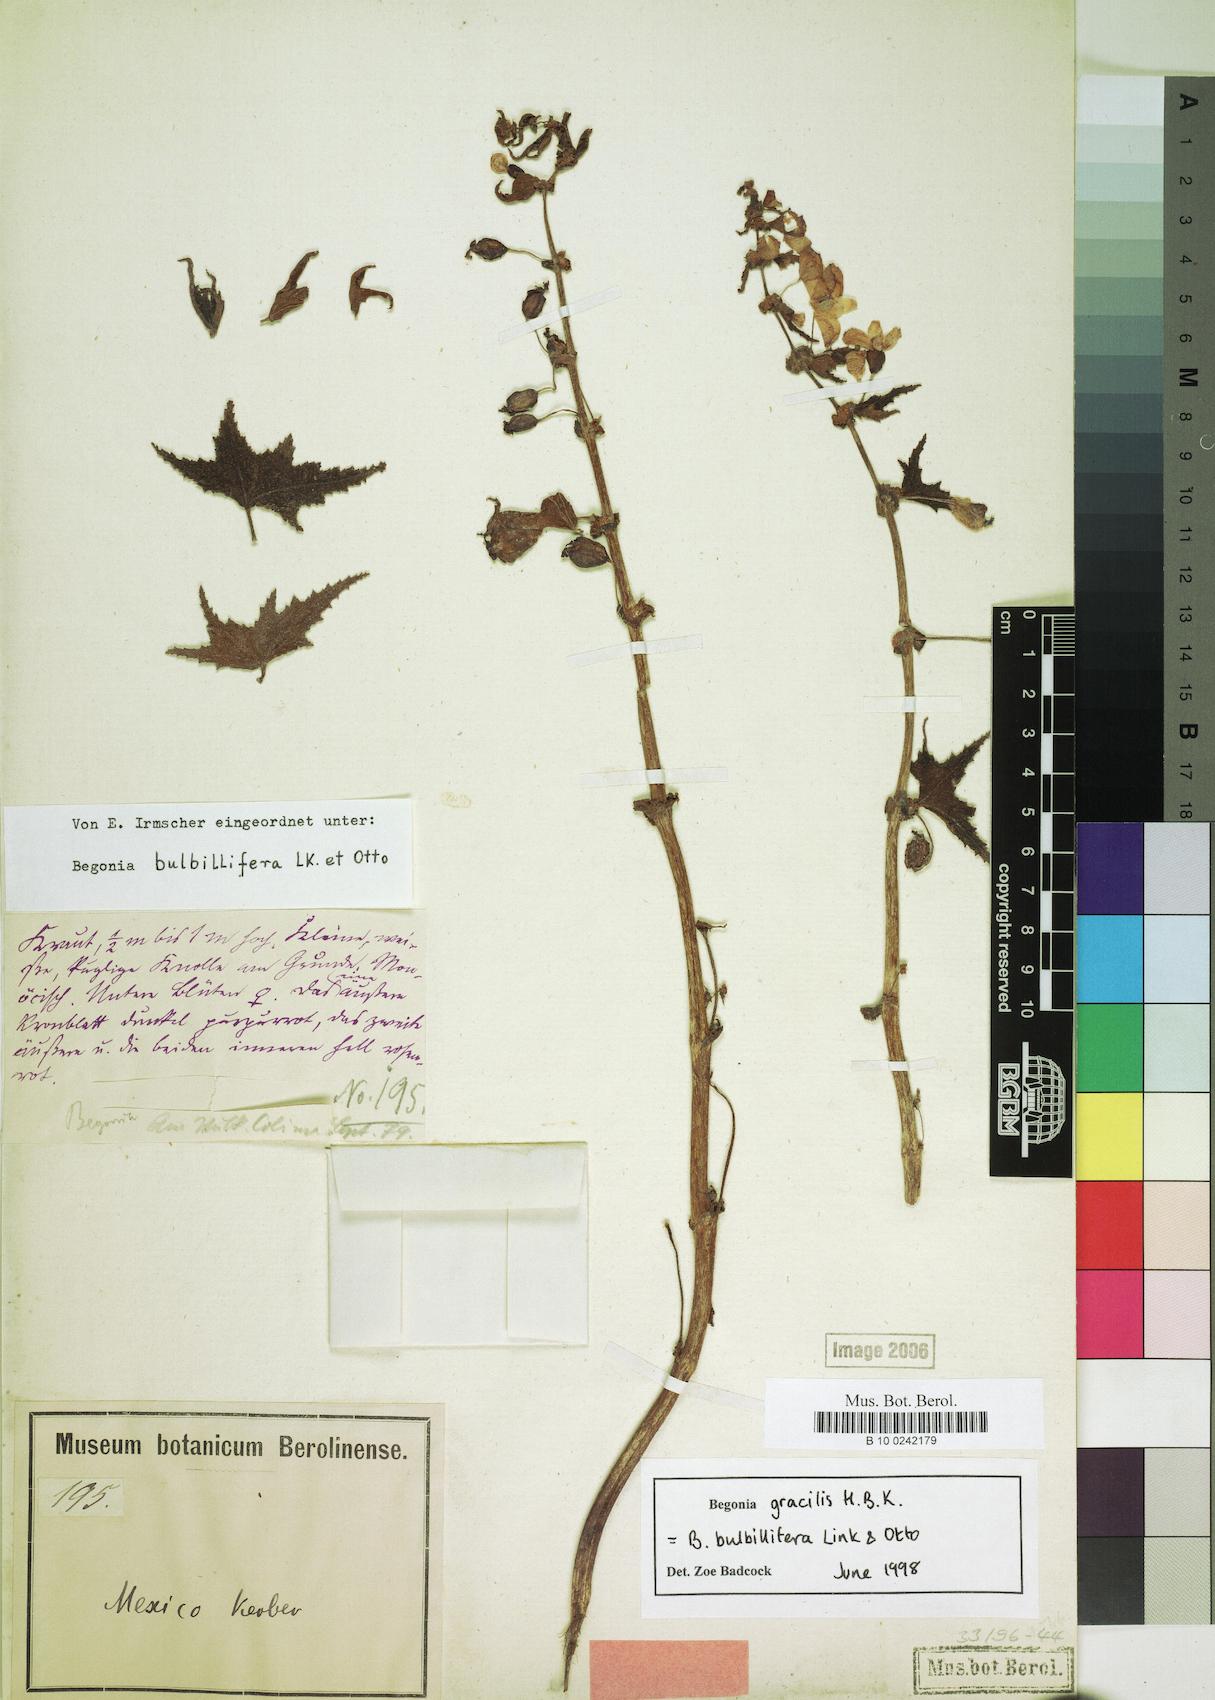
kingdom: Plantae
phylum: Tracheophyta
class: Magnoliopsida
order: Cucurbitales
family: Begoniaceae
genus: Begonia
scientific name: Begonia gracilis
